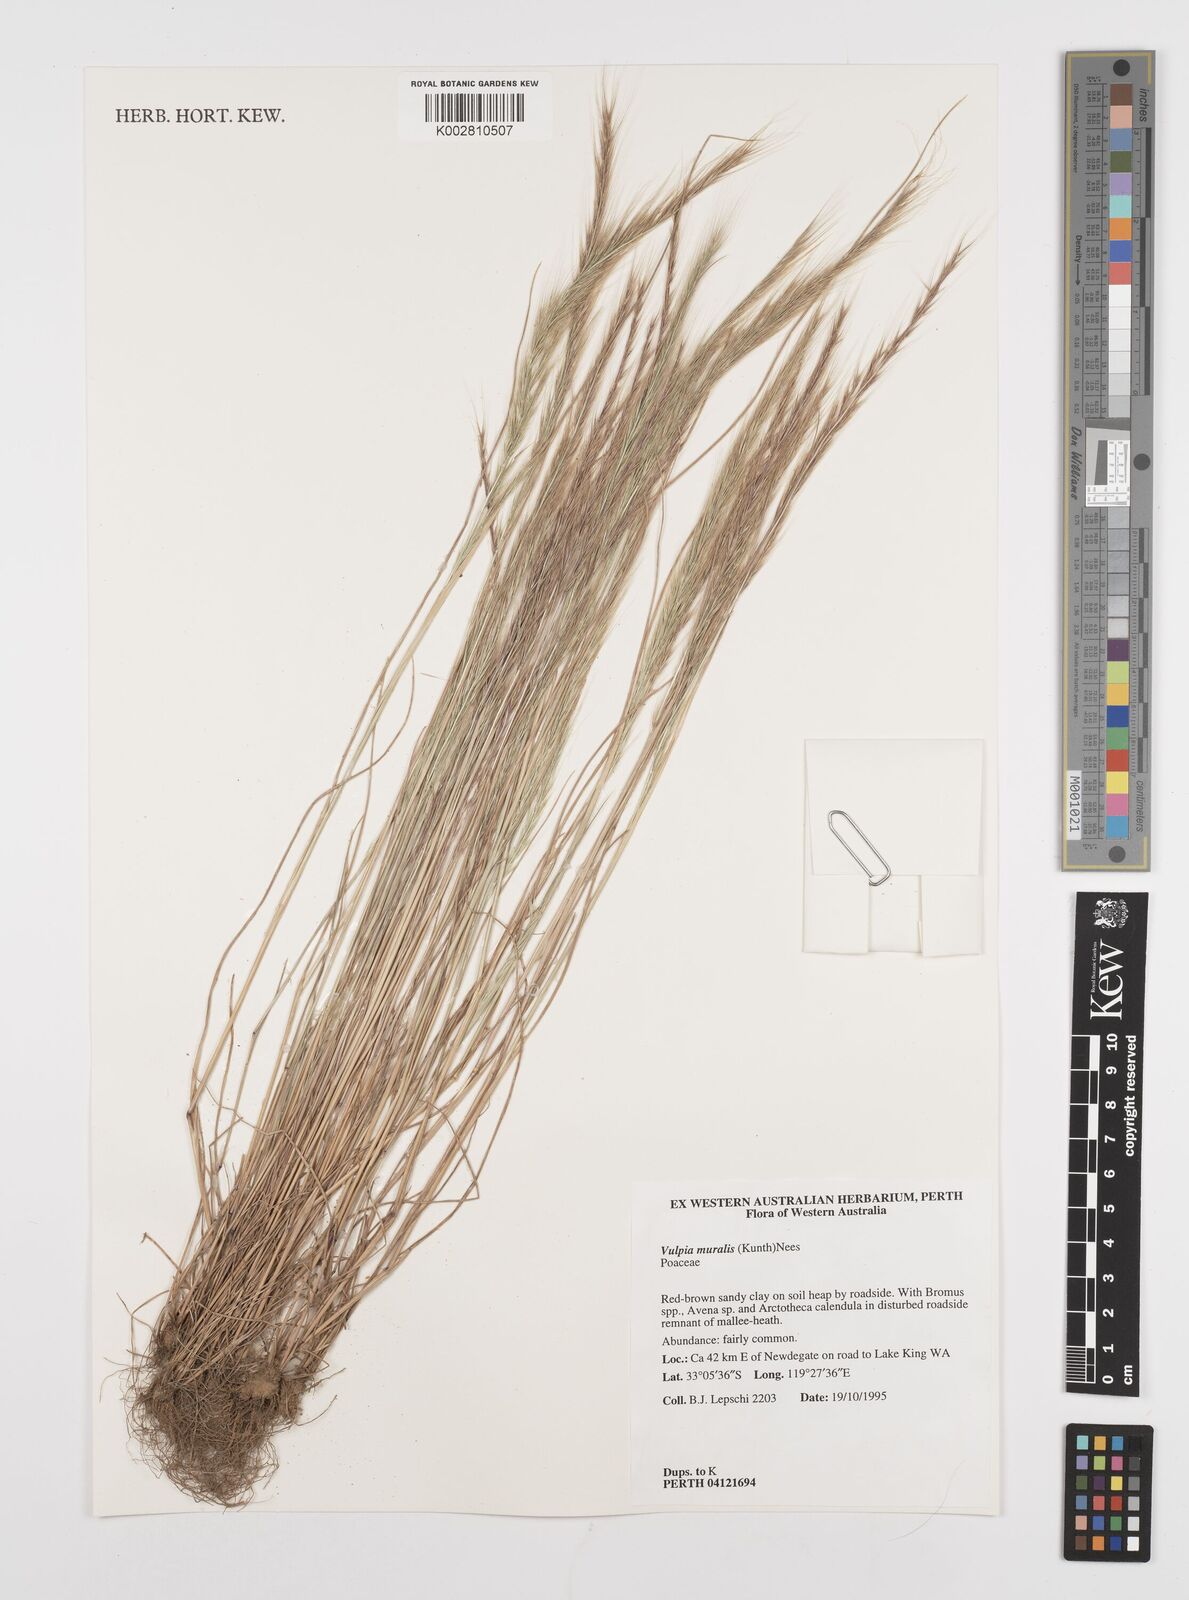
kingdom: Plantae
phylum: Tracheophyta
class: Liliopsida
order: Poales
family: Poaceae
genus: Festuca
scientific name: Festuca muralis
